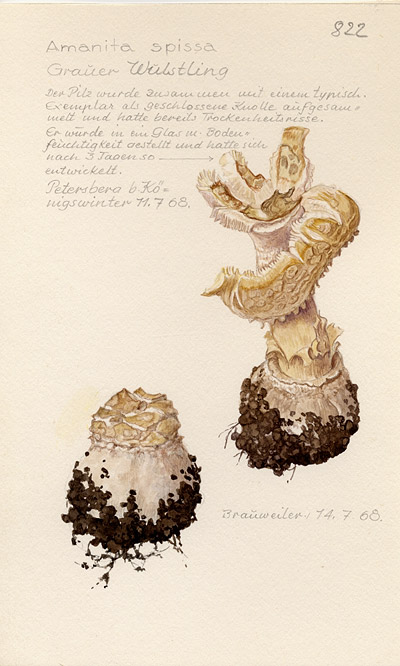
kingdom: Fungi
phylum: Basidiomycota
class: Agaricomycetes
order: Agaricales
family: Amanitaceae
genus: Amanita
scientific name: Amanita excelsa
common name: European false blusher
